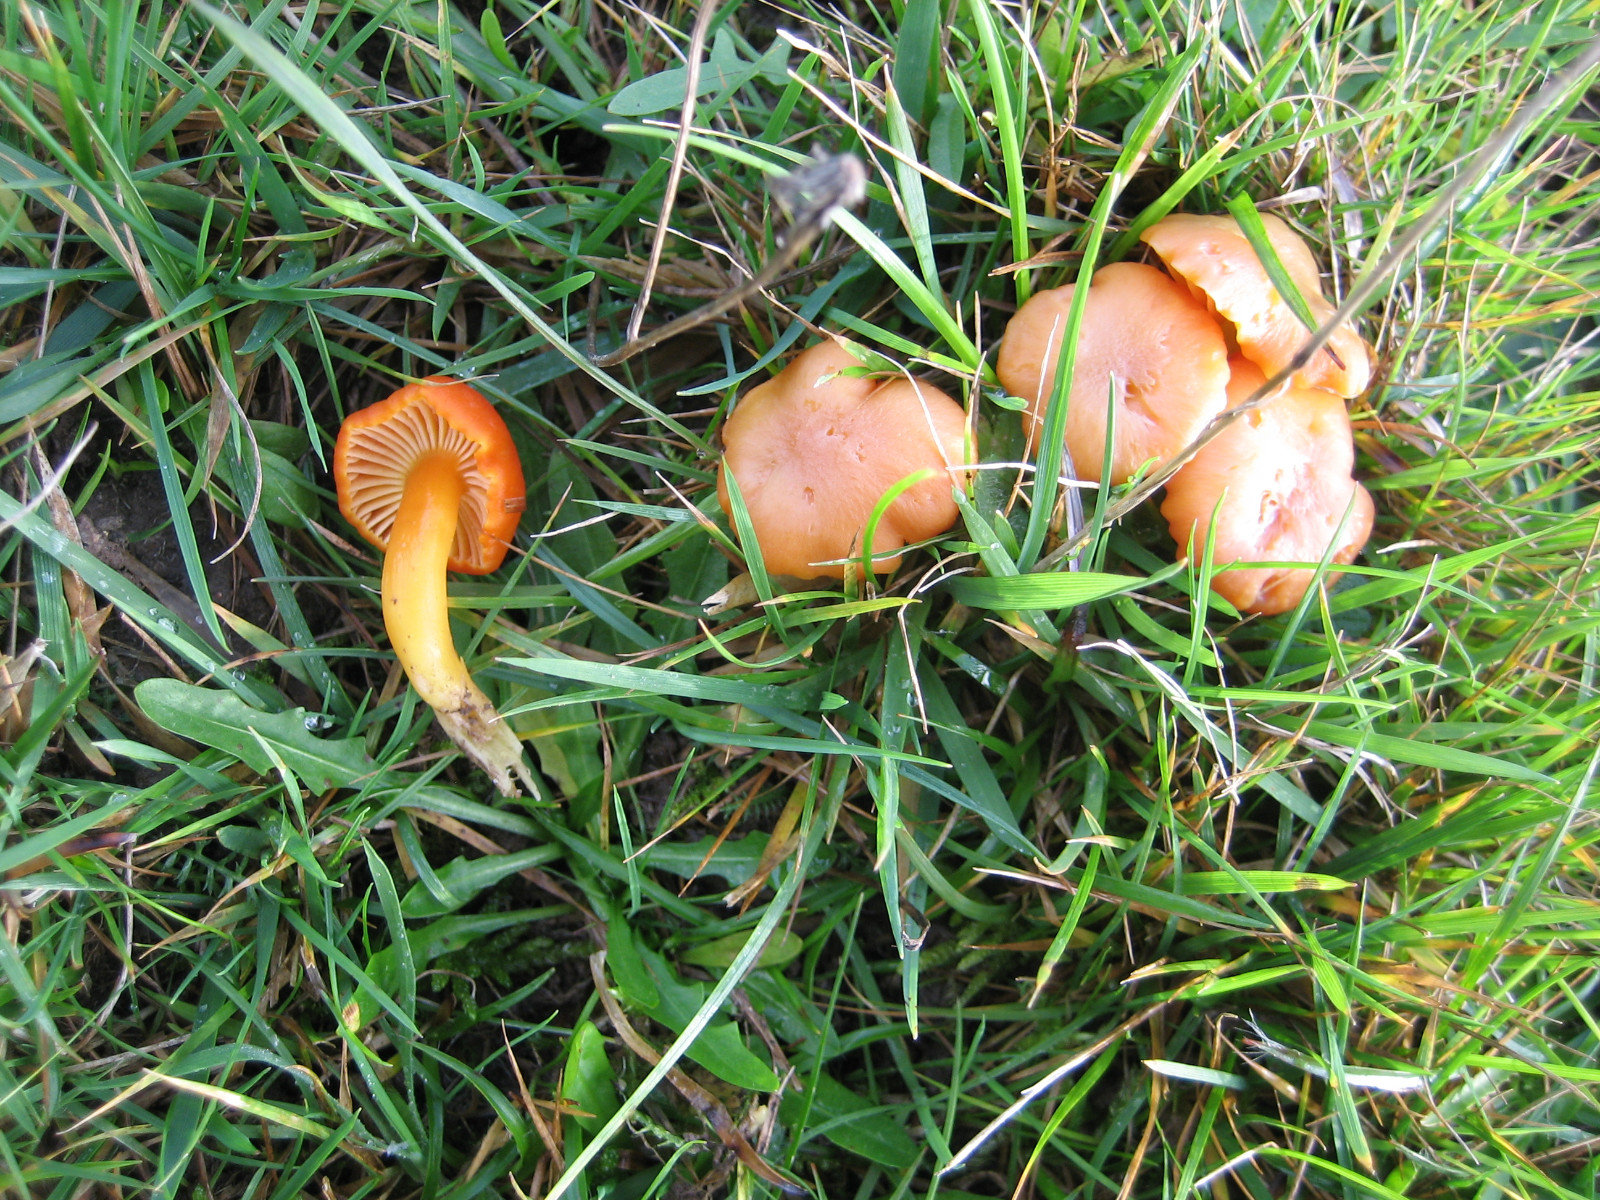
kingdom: Fungi
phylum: Basidiomycota
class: Agaricomycetes
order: Agaricales
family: Hygrophoraceae
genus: Hygrocybe
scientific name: Hygrocybe reidii
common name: honning-vokshat
